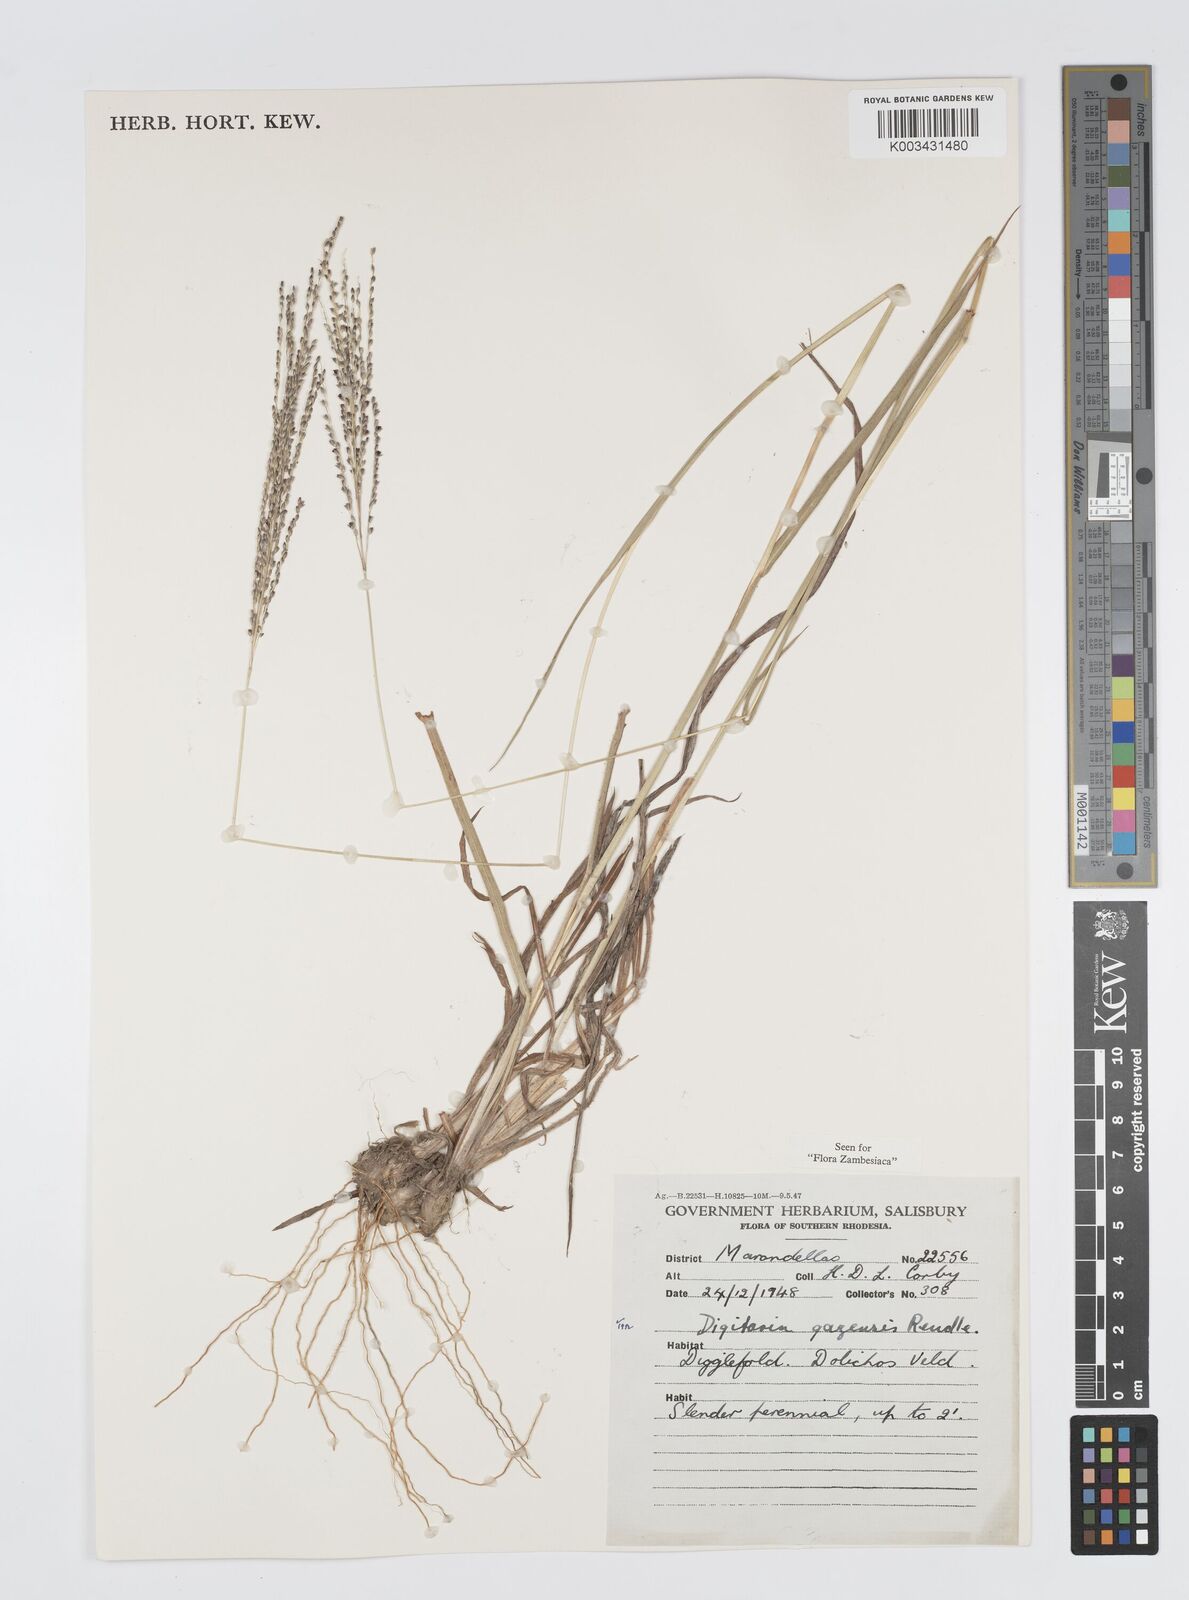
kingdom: Plantae
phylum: Tracheophyta
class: Liliopsida
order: Poales
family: Poaceae
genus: Digitaria
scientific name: Digitaria gazensis
